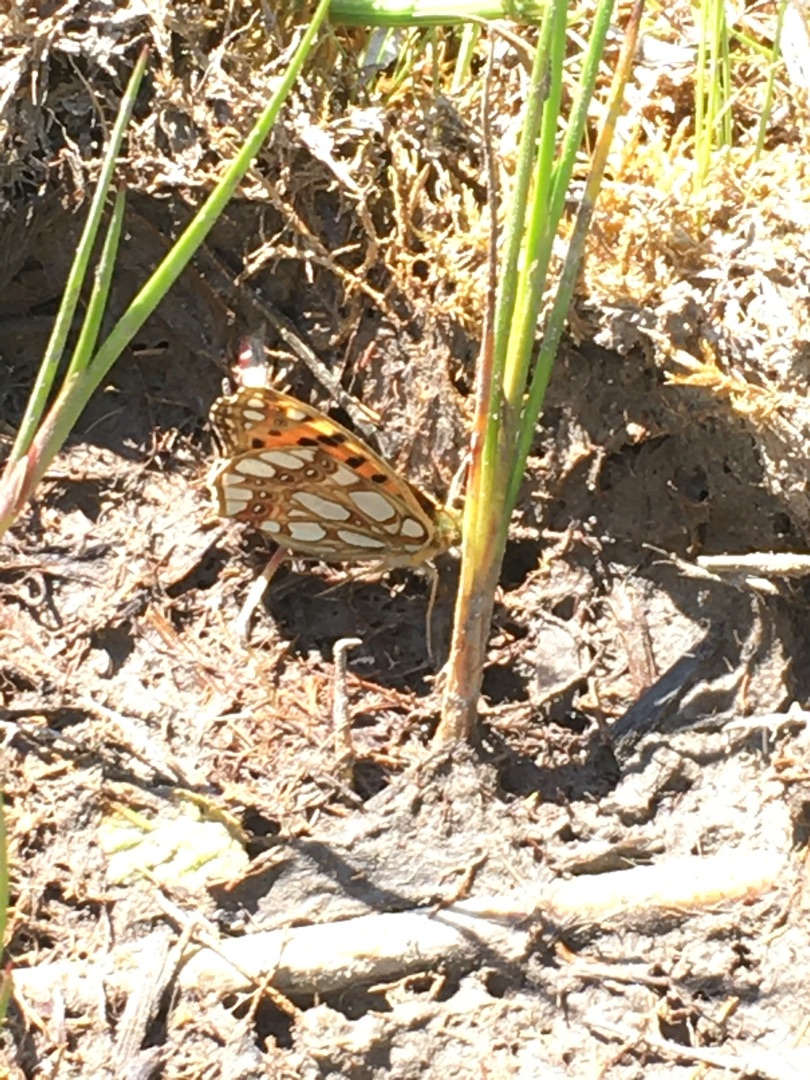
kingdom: Animalia
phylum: Arthropoda
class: Insecta
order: Lepidoptera
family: Nymphalidae
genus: Issoria
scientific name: Issoria lathonia
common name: Storplettet perlemorsommerfugl
